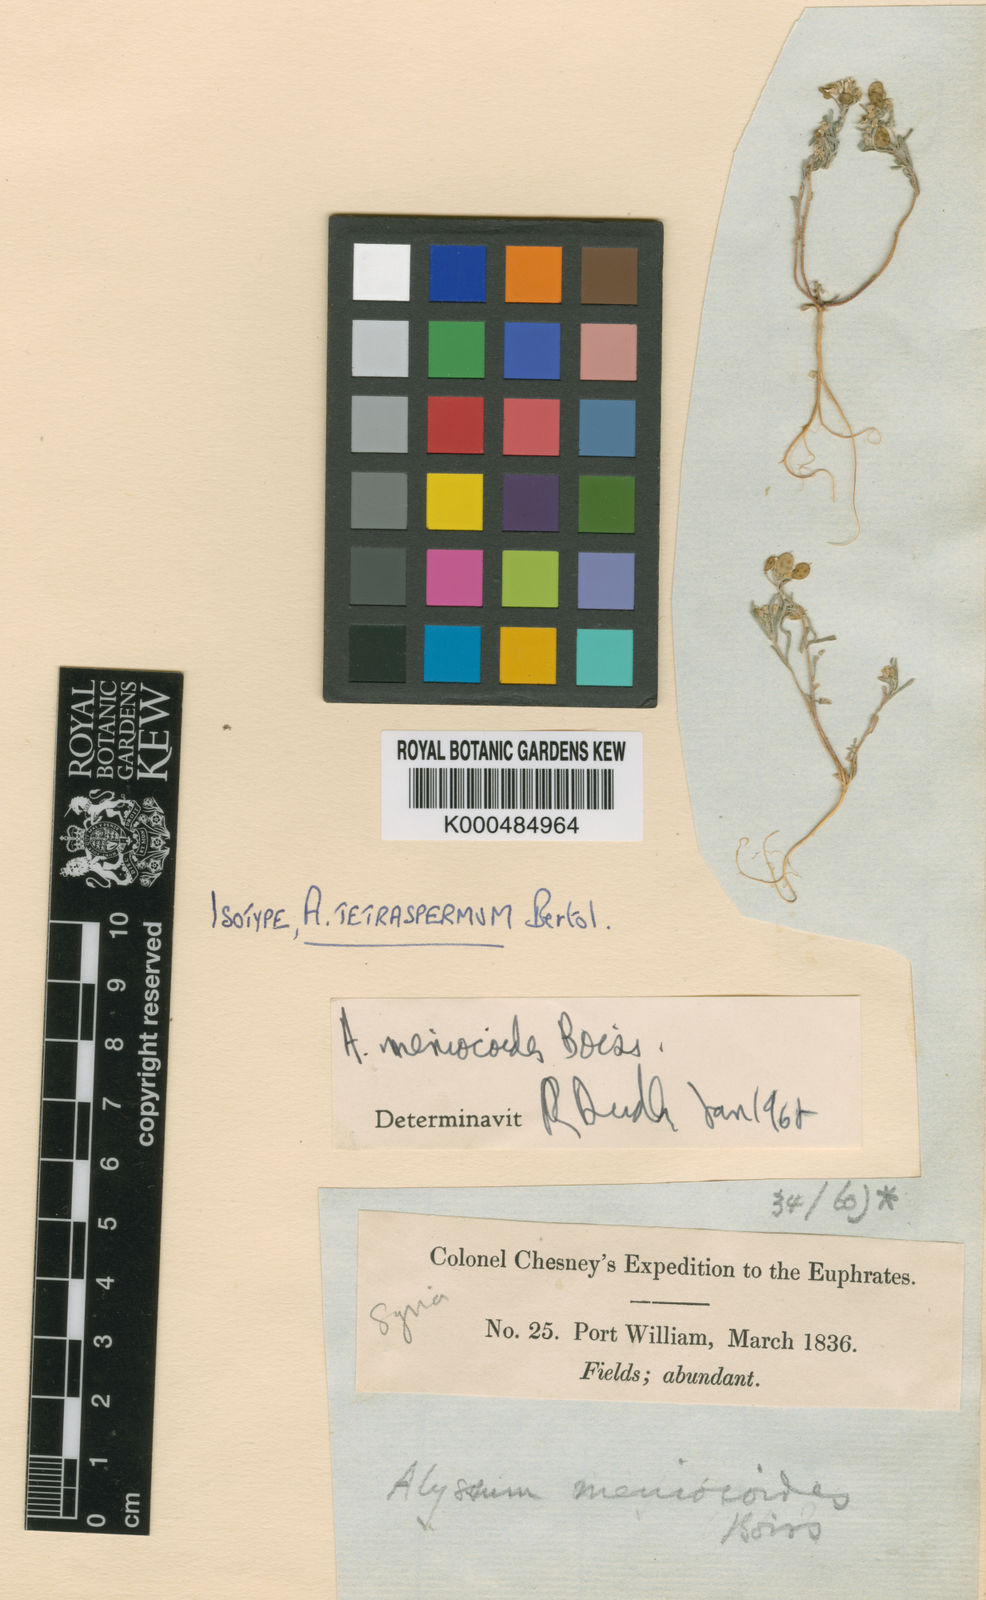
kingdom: Plantae
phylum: Tracheophyta
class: Magnoliopsida
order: Brassicales
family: Brassicaceae
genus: Meniocus
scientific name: Meniocus
